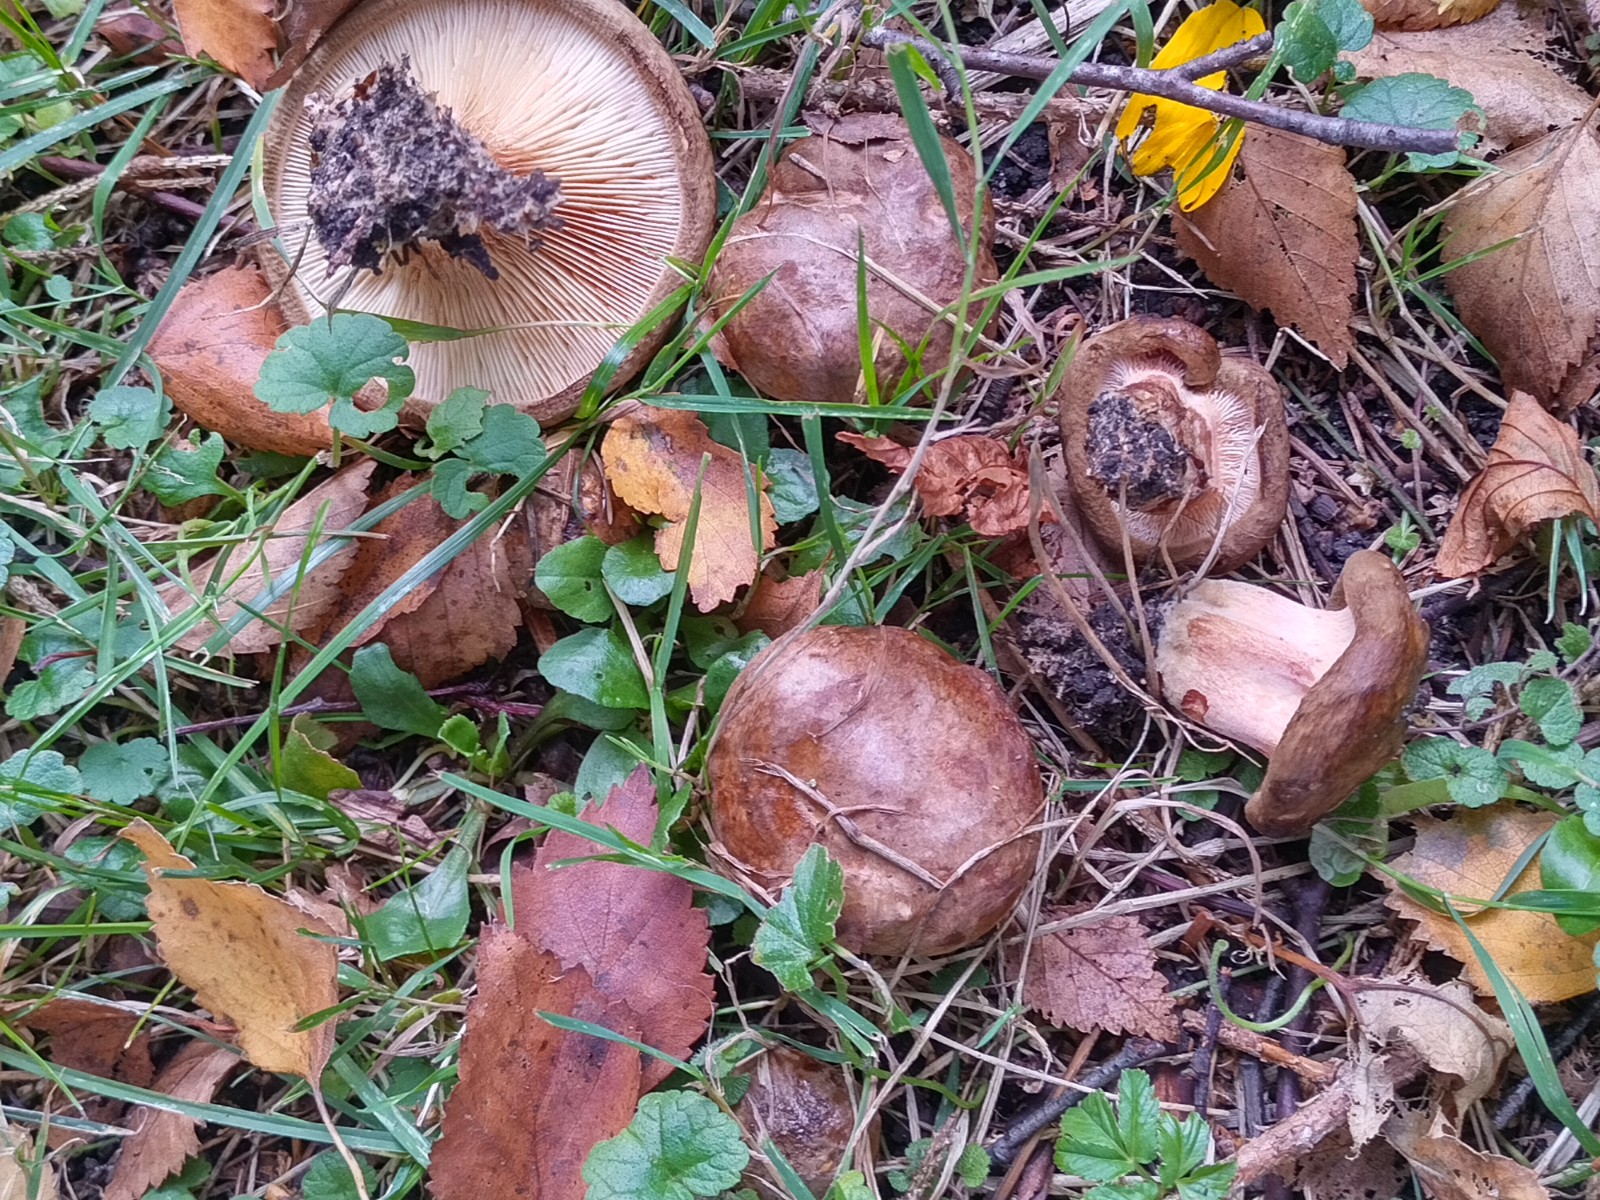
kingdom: Fungi
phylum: Basidiomycota
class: Agaricomycetes
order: Boletales
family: Paxillaceae
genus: Paxillus
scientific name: Paxillus involutus
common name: almindelig netbladhat
